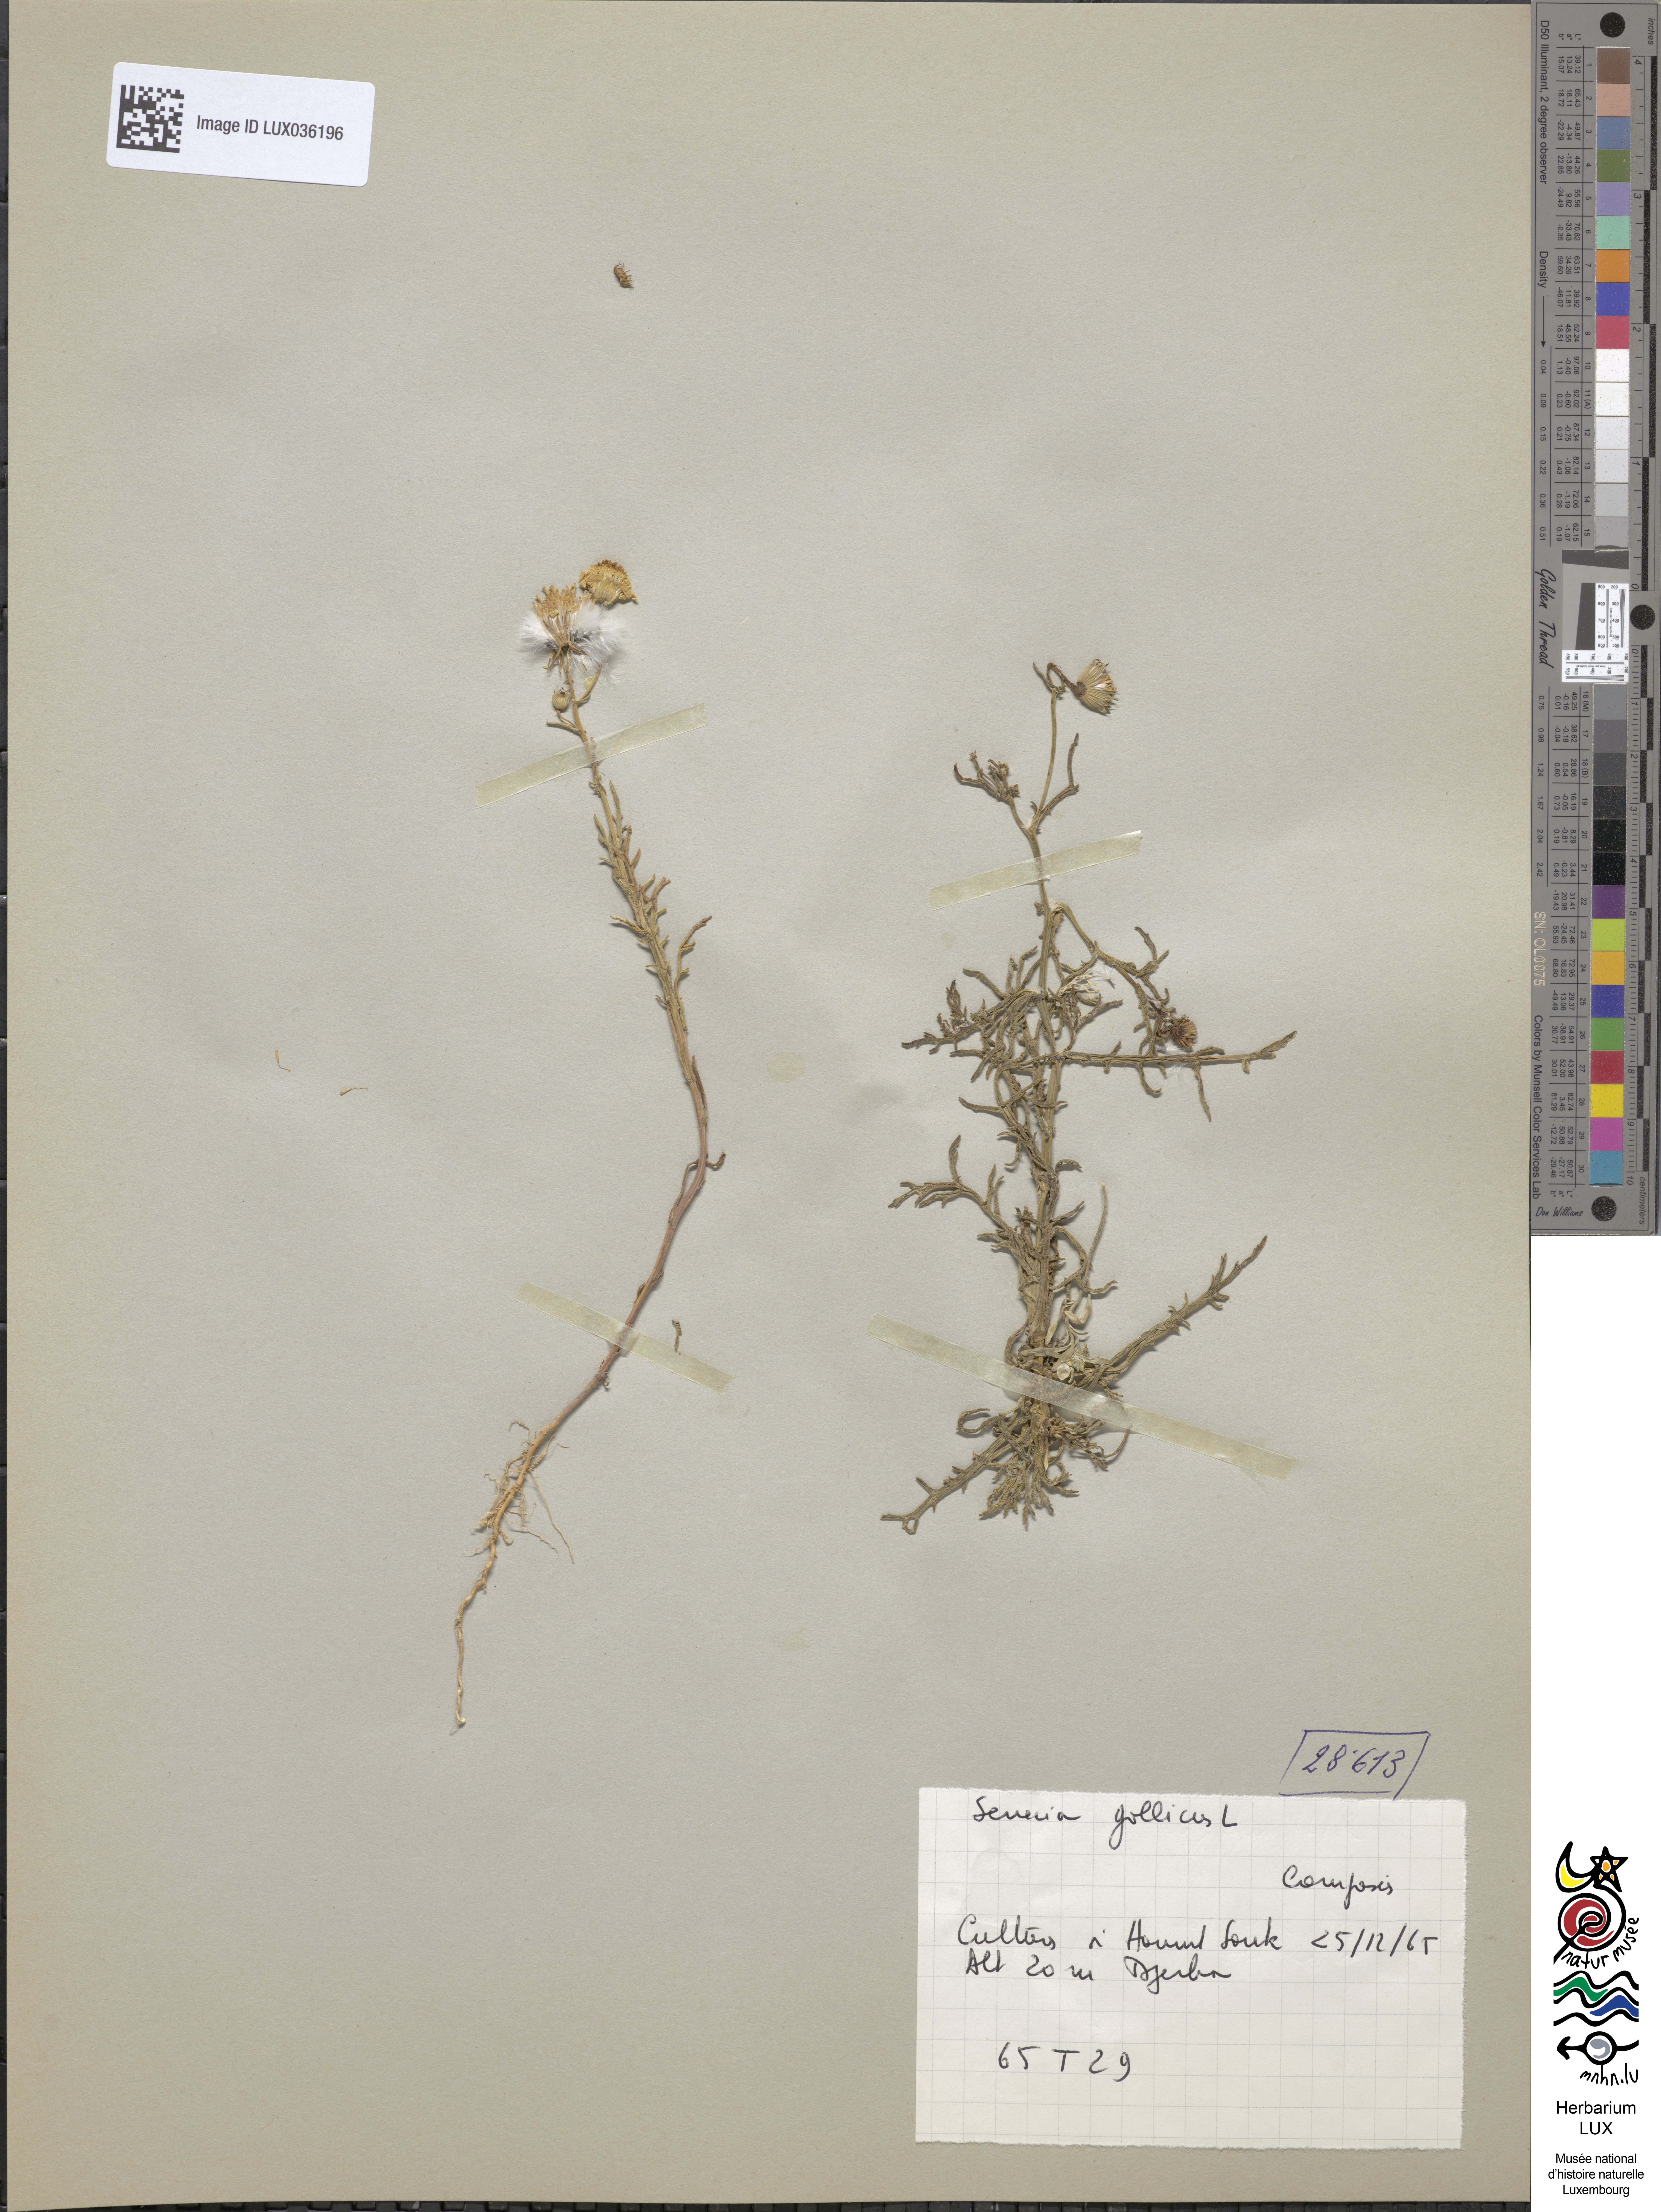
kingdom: Plantae
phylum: Tracheophyta
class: Magnoliopsida
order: Asterales
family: Asteraceae
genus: Senecio
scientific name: Senecio gallicus
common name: French groundsel
